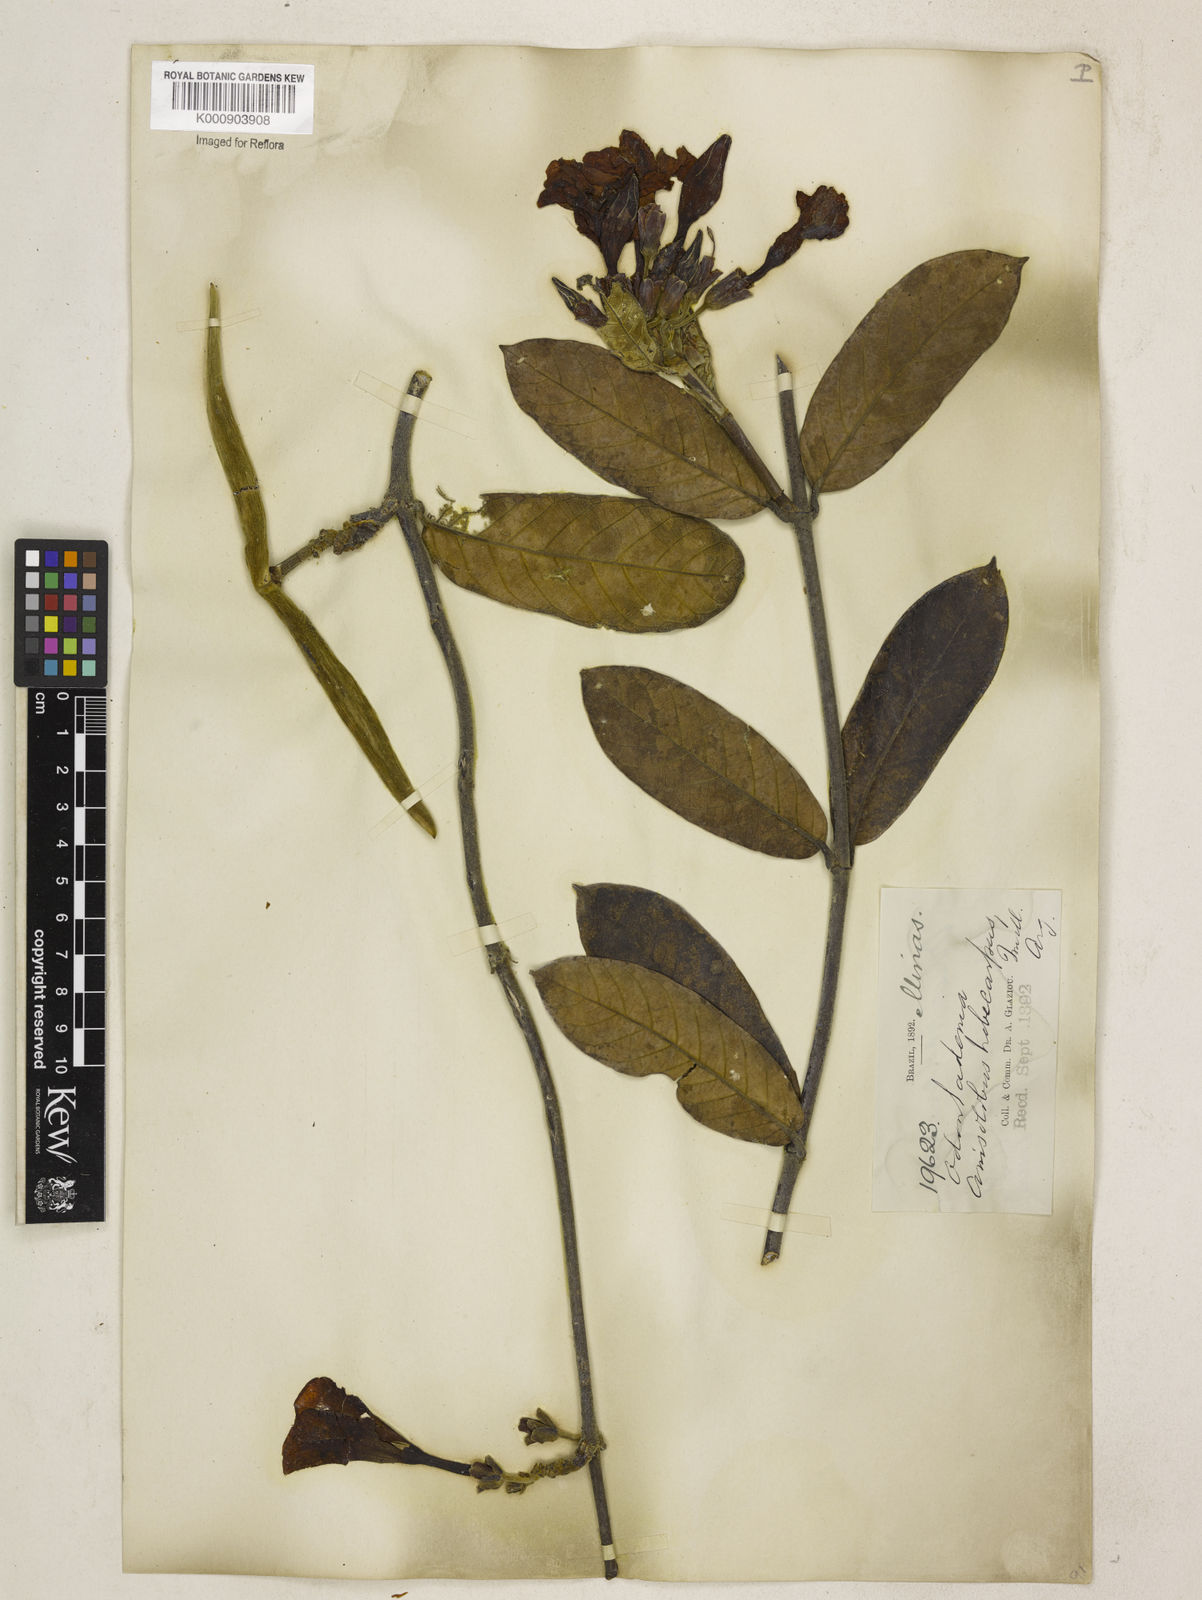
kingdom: Plantae
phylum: Tracheophyta
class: Magnoliopsida
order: Gentianales
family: Apocynaceae
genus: Odontadenia
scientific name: Odontadenia lutea
